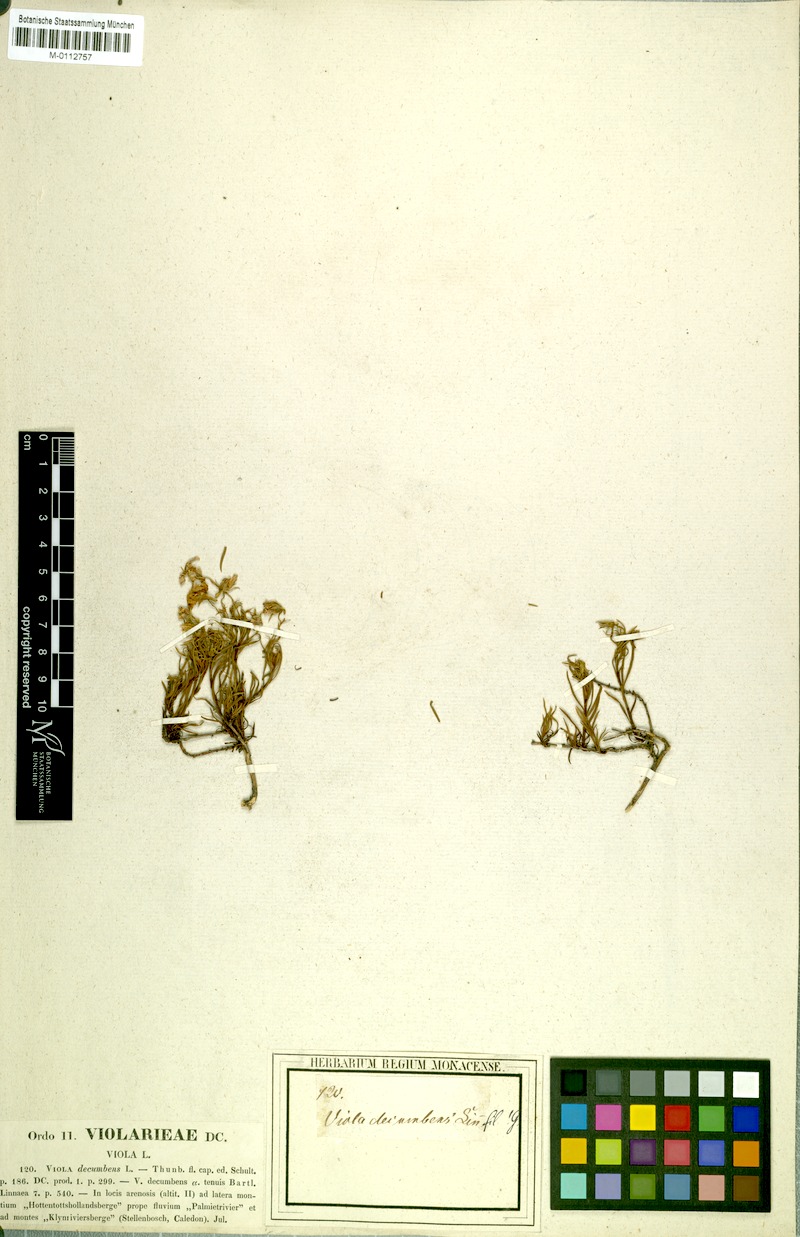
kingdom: Plantae
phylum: Tracheophyta
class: Magnoliopsida
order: Malpighiales
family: Violaceae
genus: Viola
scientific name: Viola decumbens
